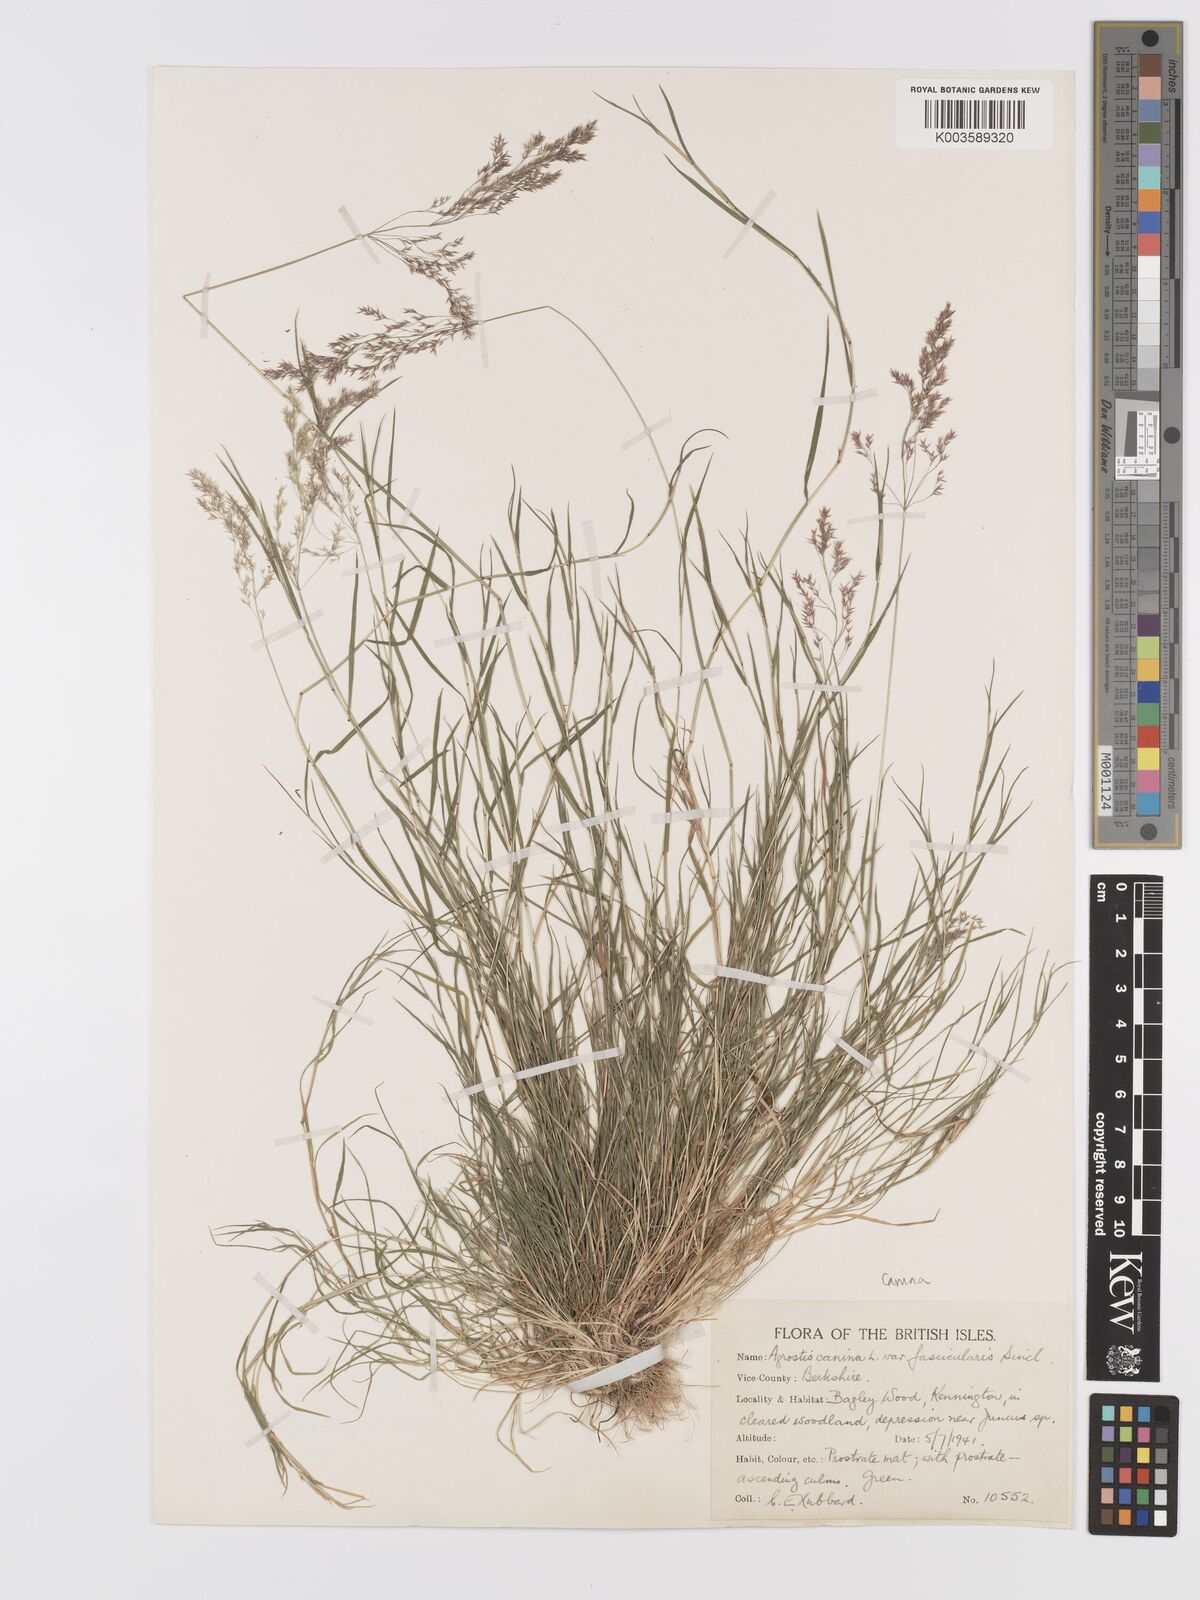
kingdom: Plantae
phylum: Tracheophyta
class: Liliopsida
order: Poales
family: Poaceae
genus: Agrostis
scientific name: Agrostis canina
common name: Velvet bent
